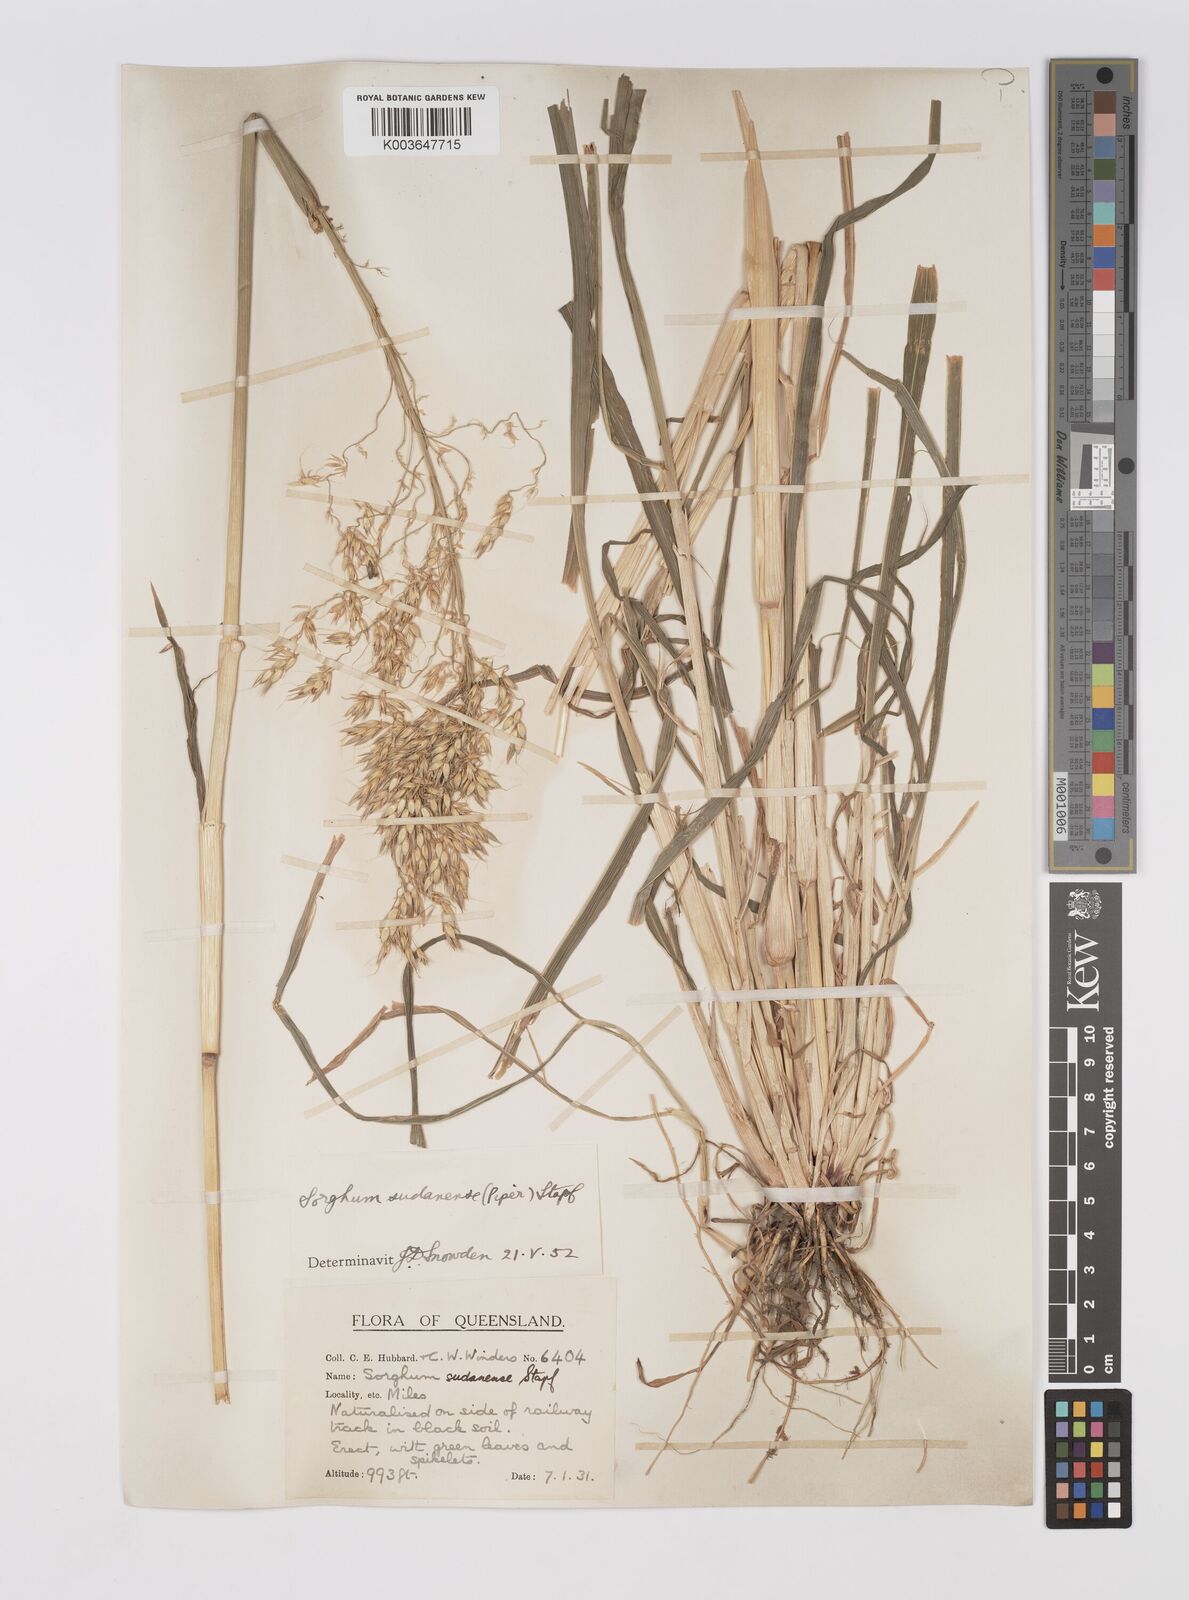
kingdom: Plantae
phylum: Tracheophyta
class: Liliopsida
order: Poales
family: Poaceae
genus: Sorghum
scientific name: Sorghum drummondii
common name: Sudangrass
